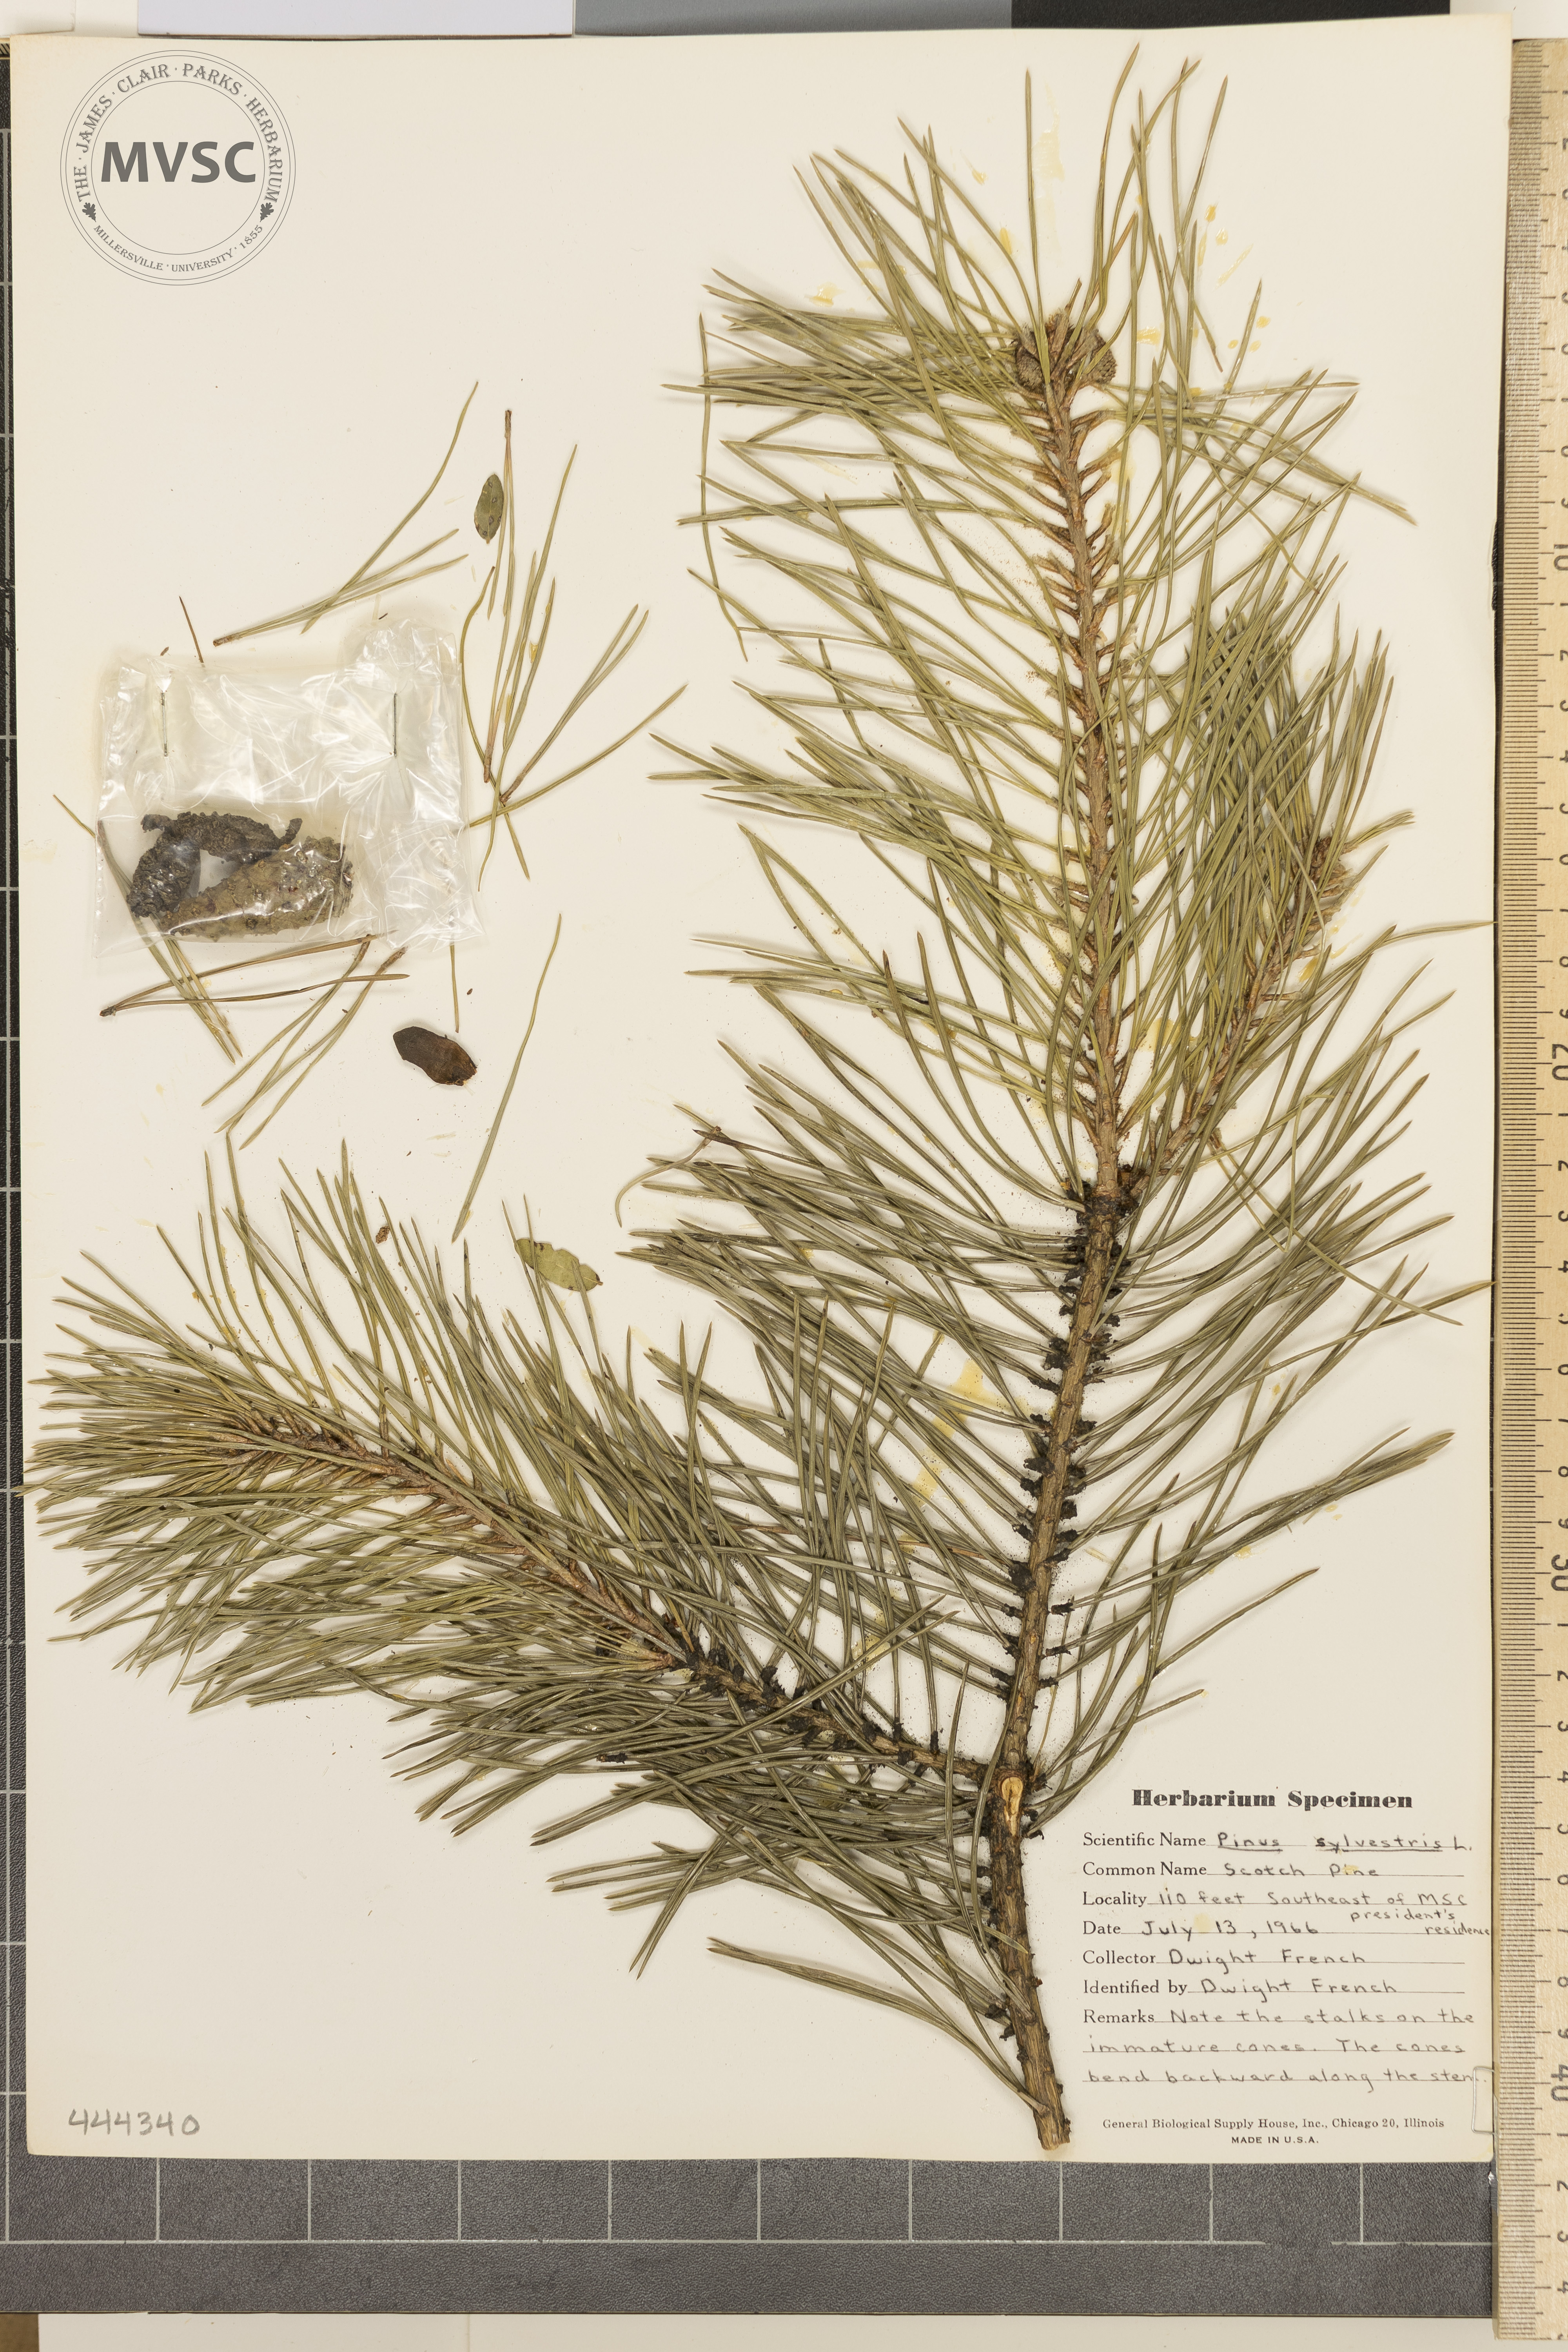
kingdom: Plantae
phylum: Tracheophyta
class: Pinopsida
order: Pinales
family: Pinaceae
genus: Pinus
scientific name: Pinus sylvestris
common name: Scotch Pine
